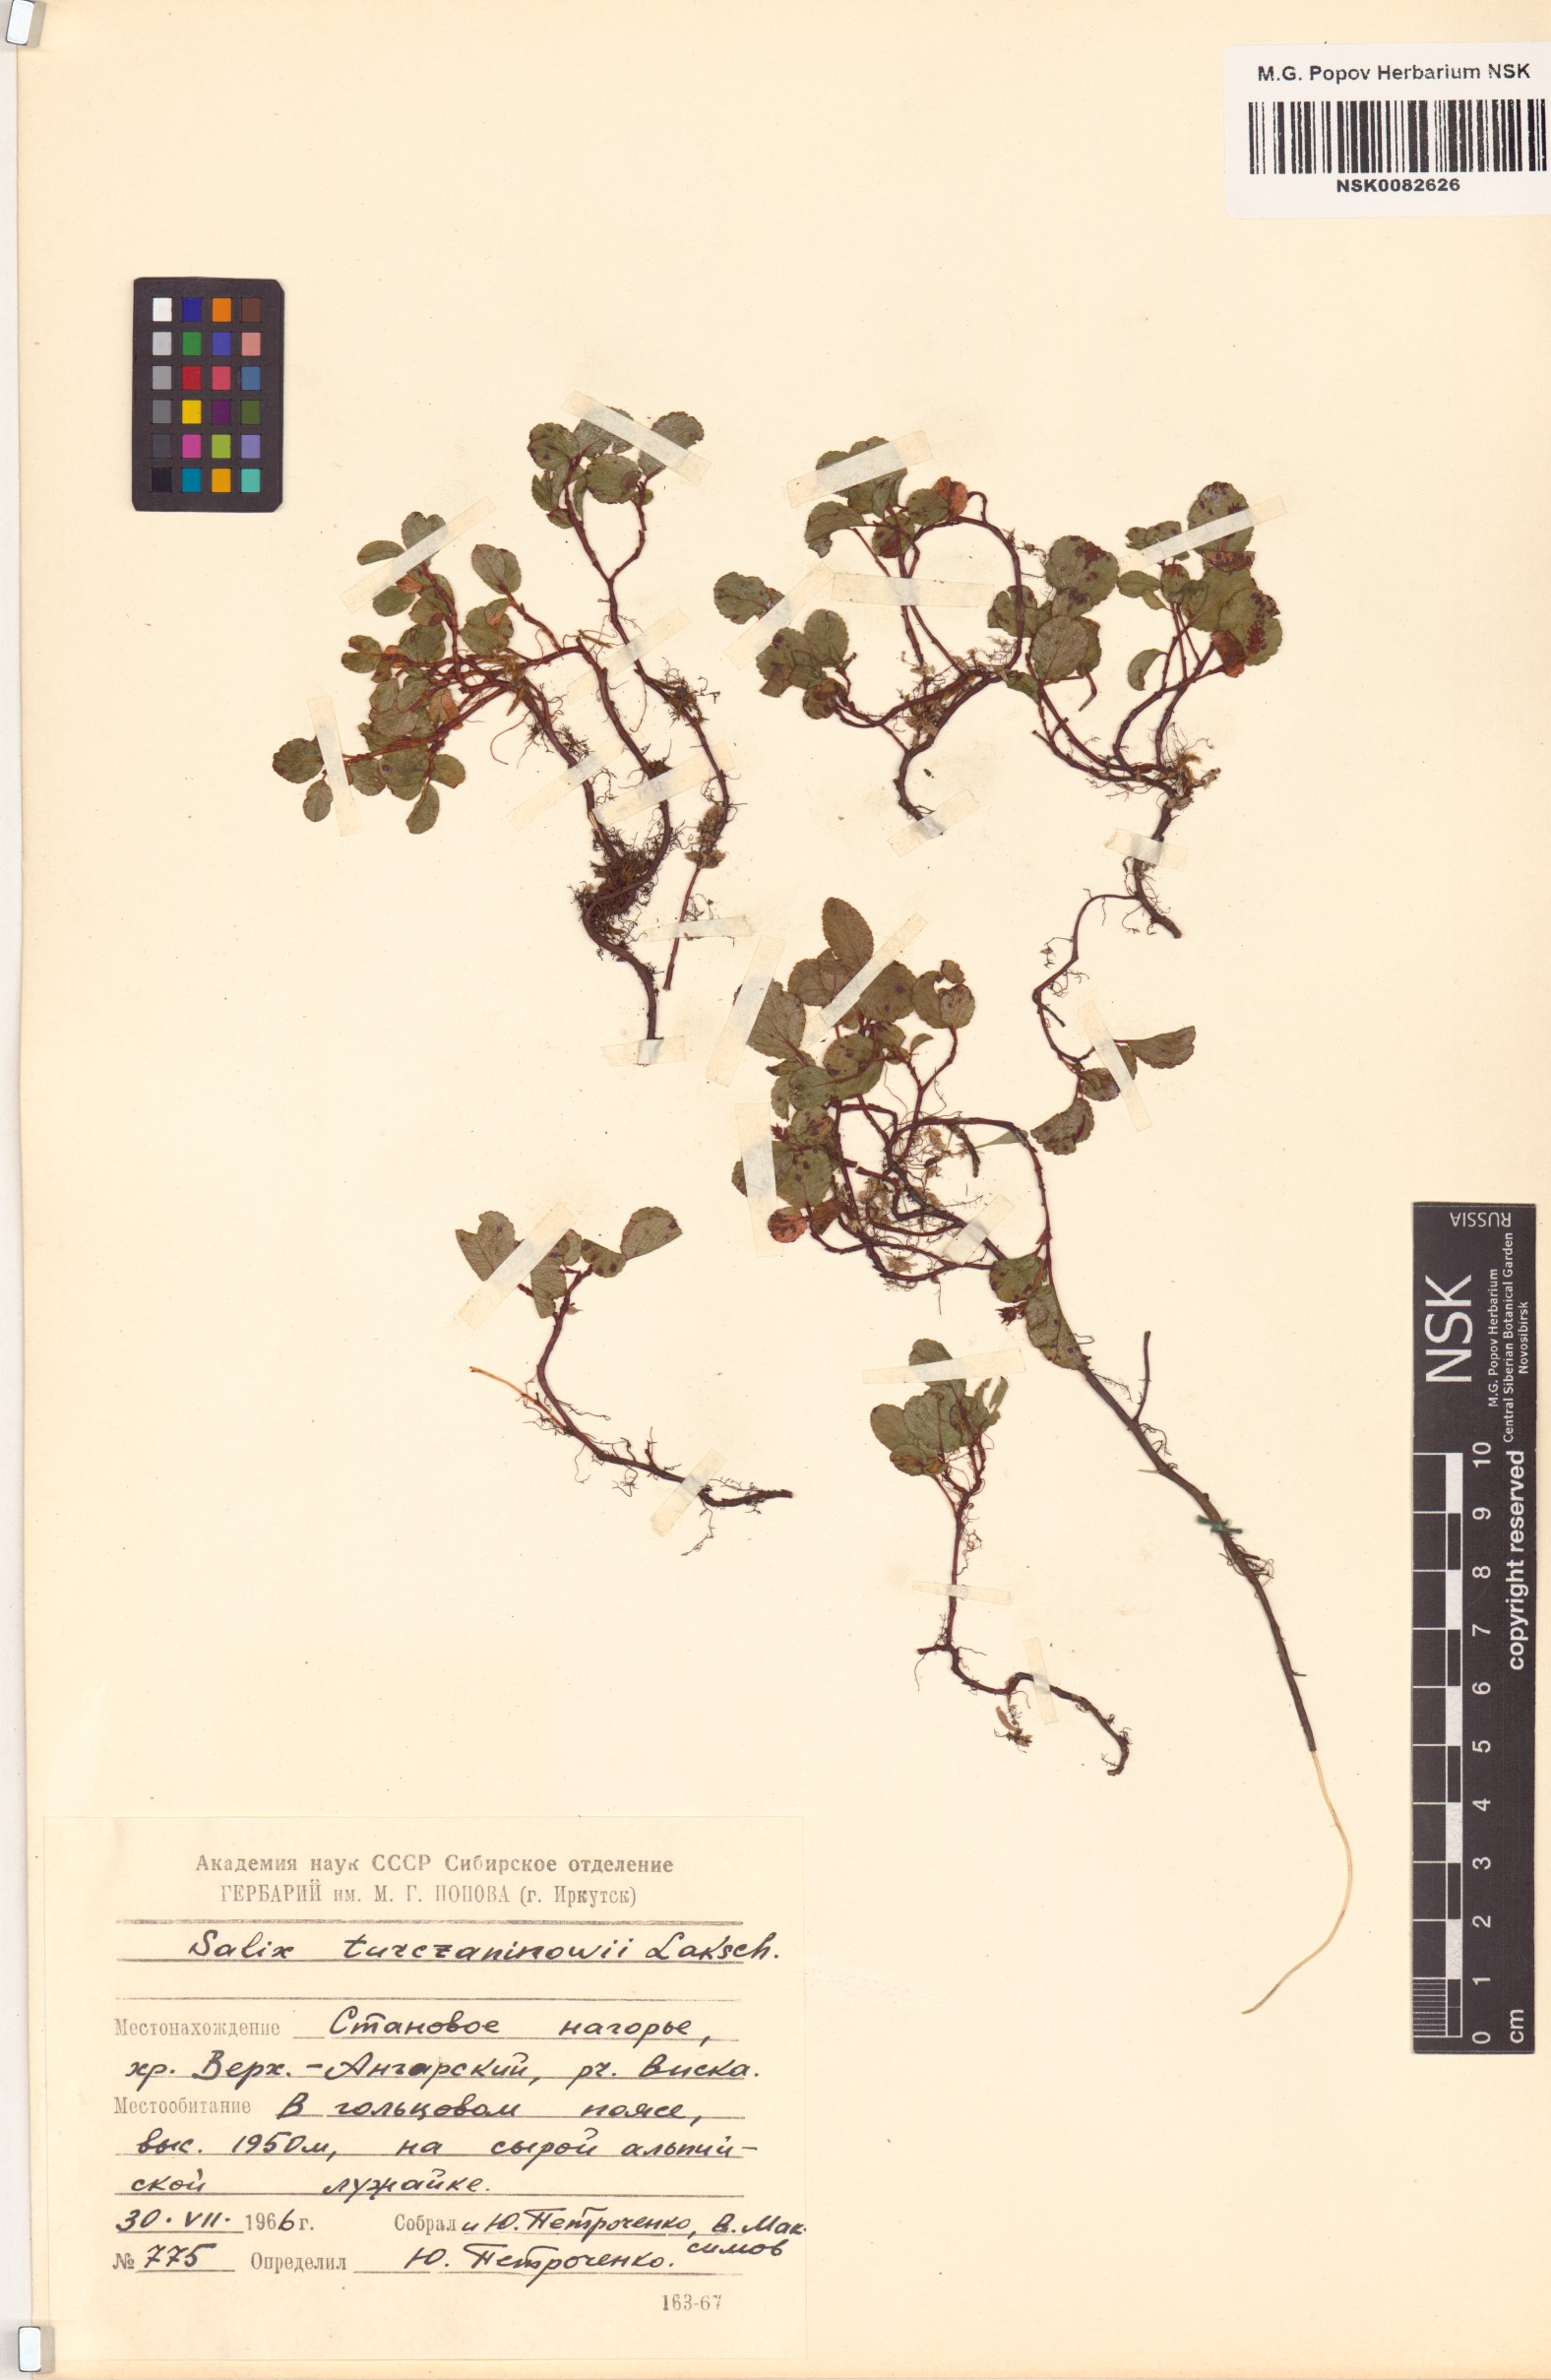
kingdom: Plantae
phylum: Tracheophyta
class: Magnoliopsida
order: Malpighiales
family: Salicaceae
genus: Salix
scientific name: Salix turczaninowii
